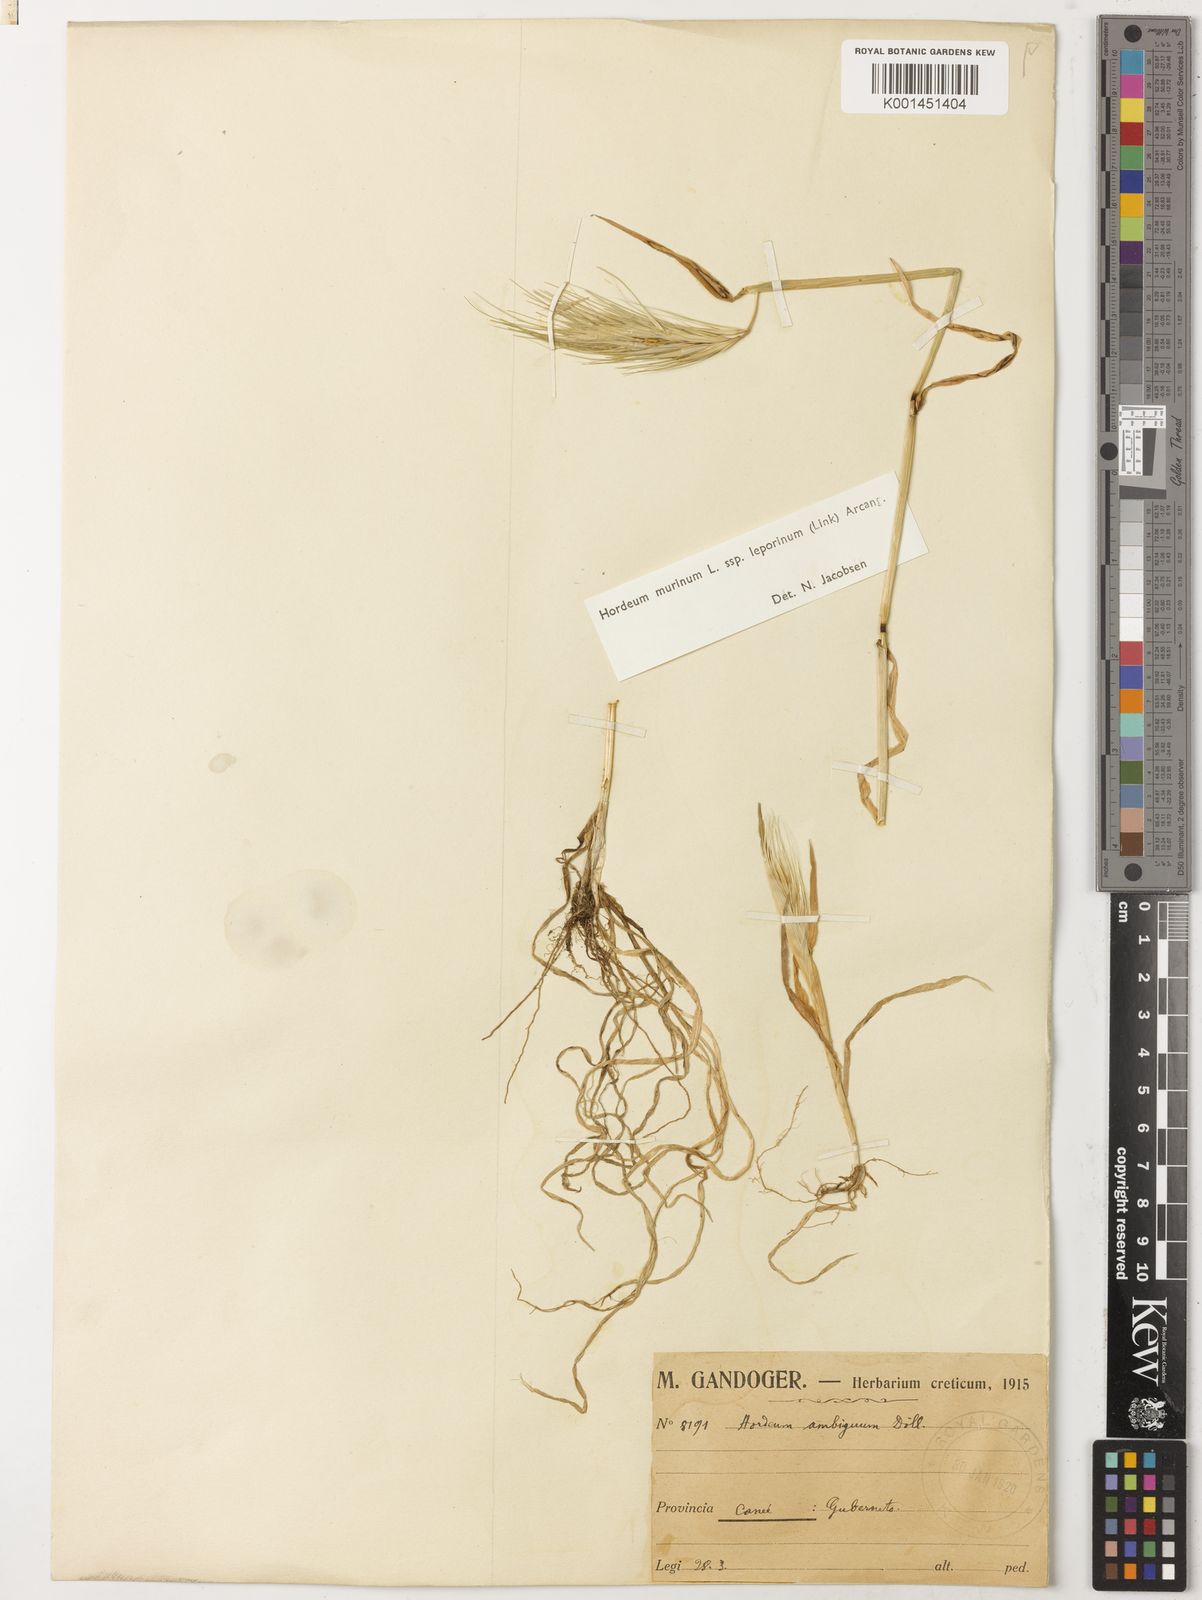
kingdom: Plantae
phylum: Tracheophyta
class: Liliopsida
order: Poales
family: Poaceae
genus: Hordeum
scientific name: Hordeum murinum
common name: Wall barley
